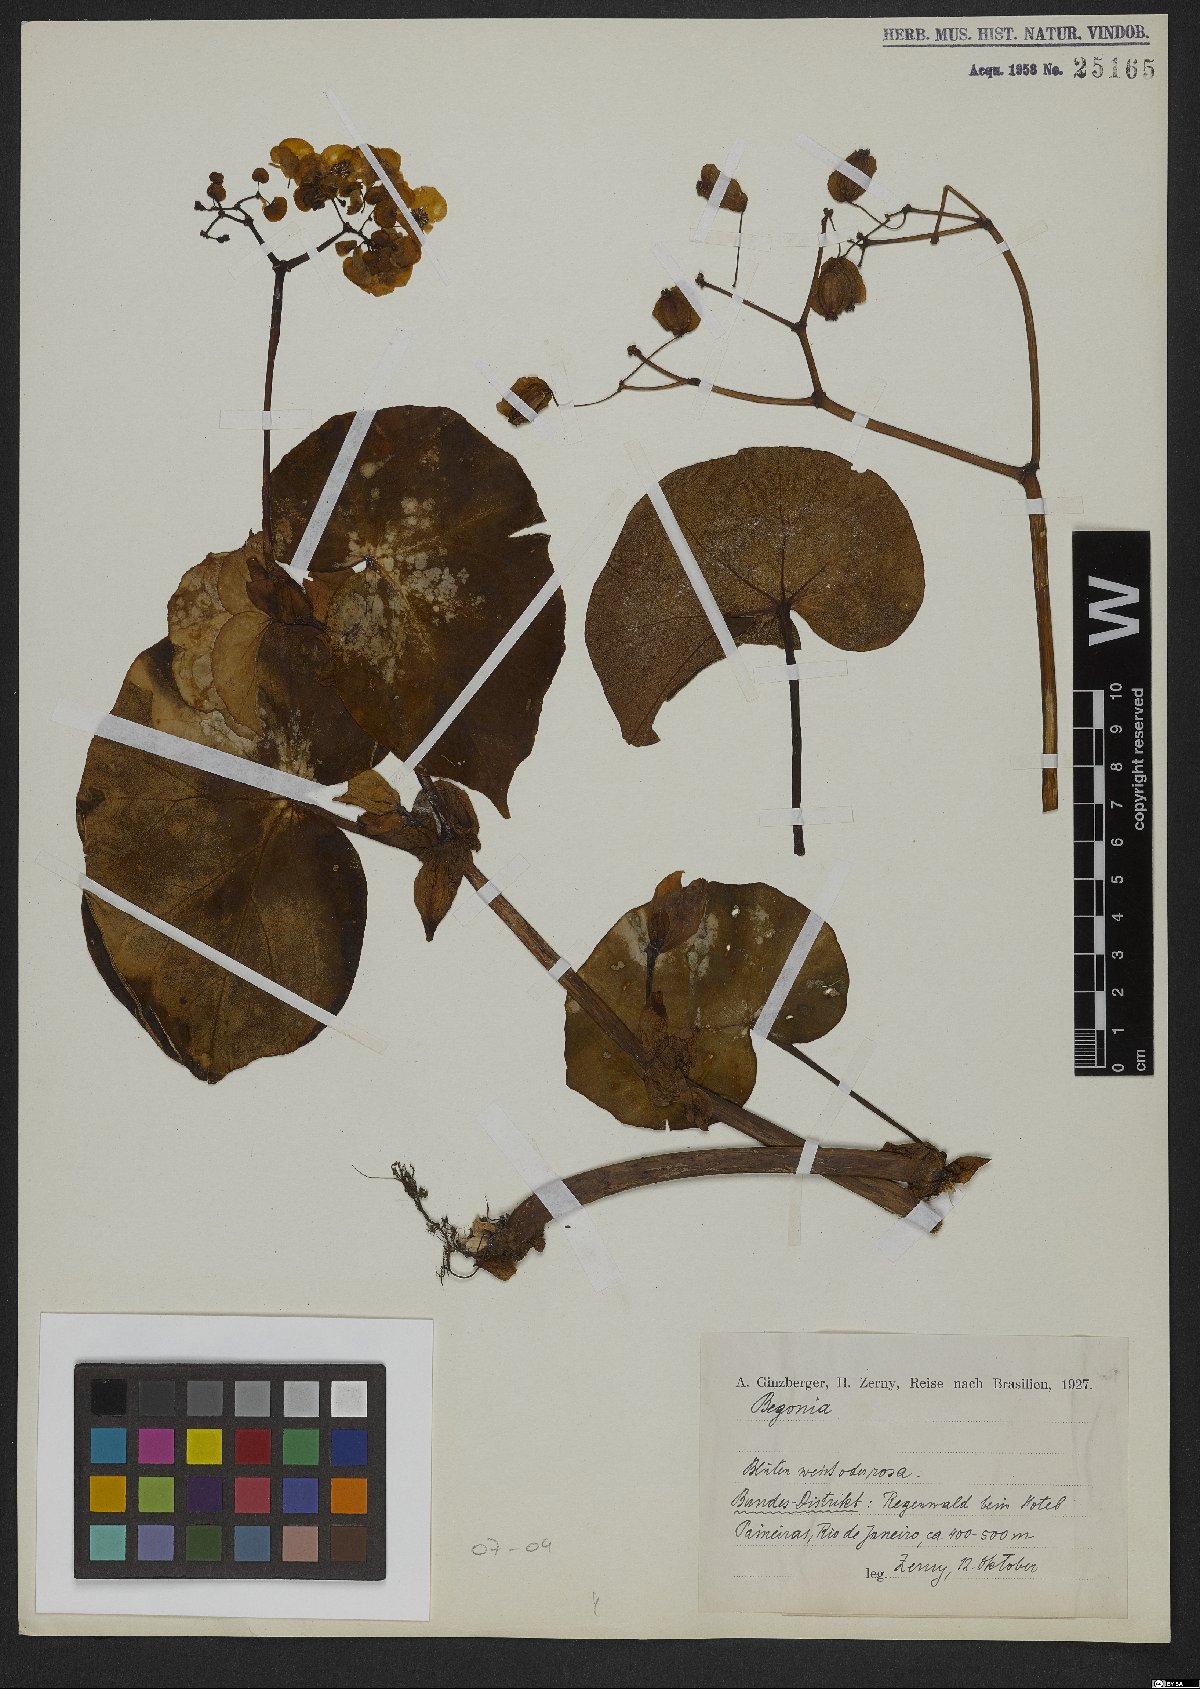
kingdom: Plantae
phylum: Tracheophyta
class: Magnoliopsida
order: Cucurbitales
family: Begoniaceae
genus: Begonia
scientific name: Begonia
